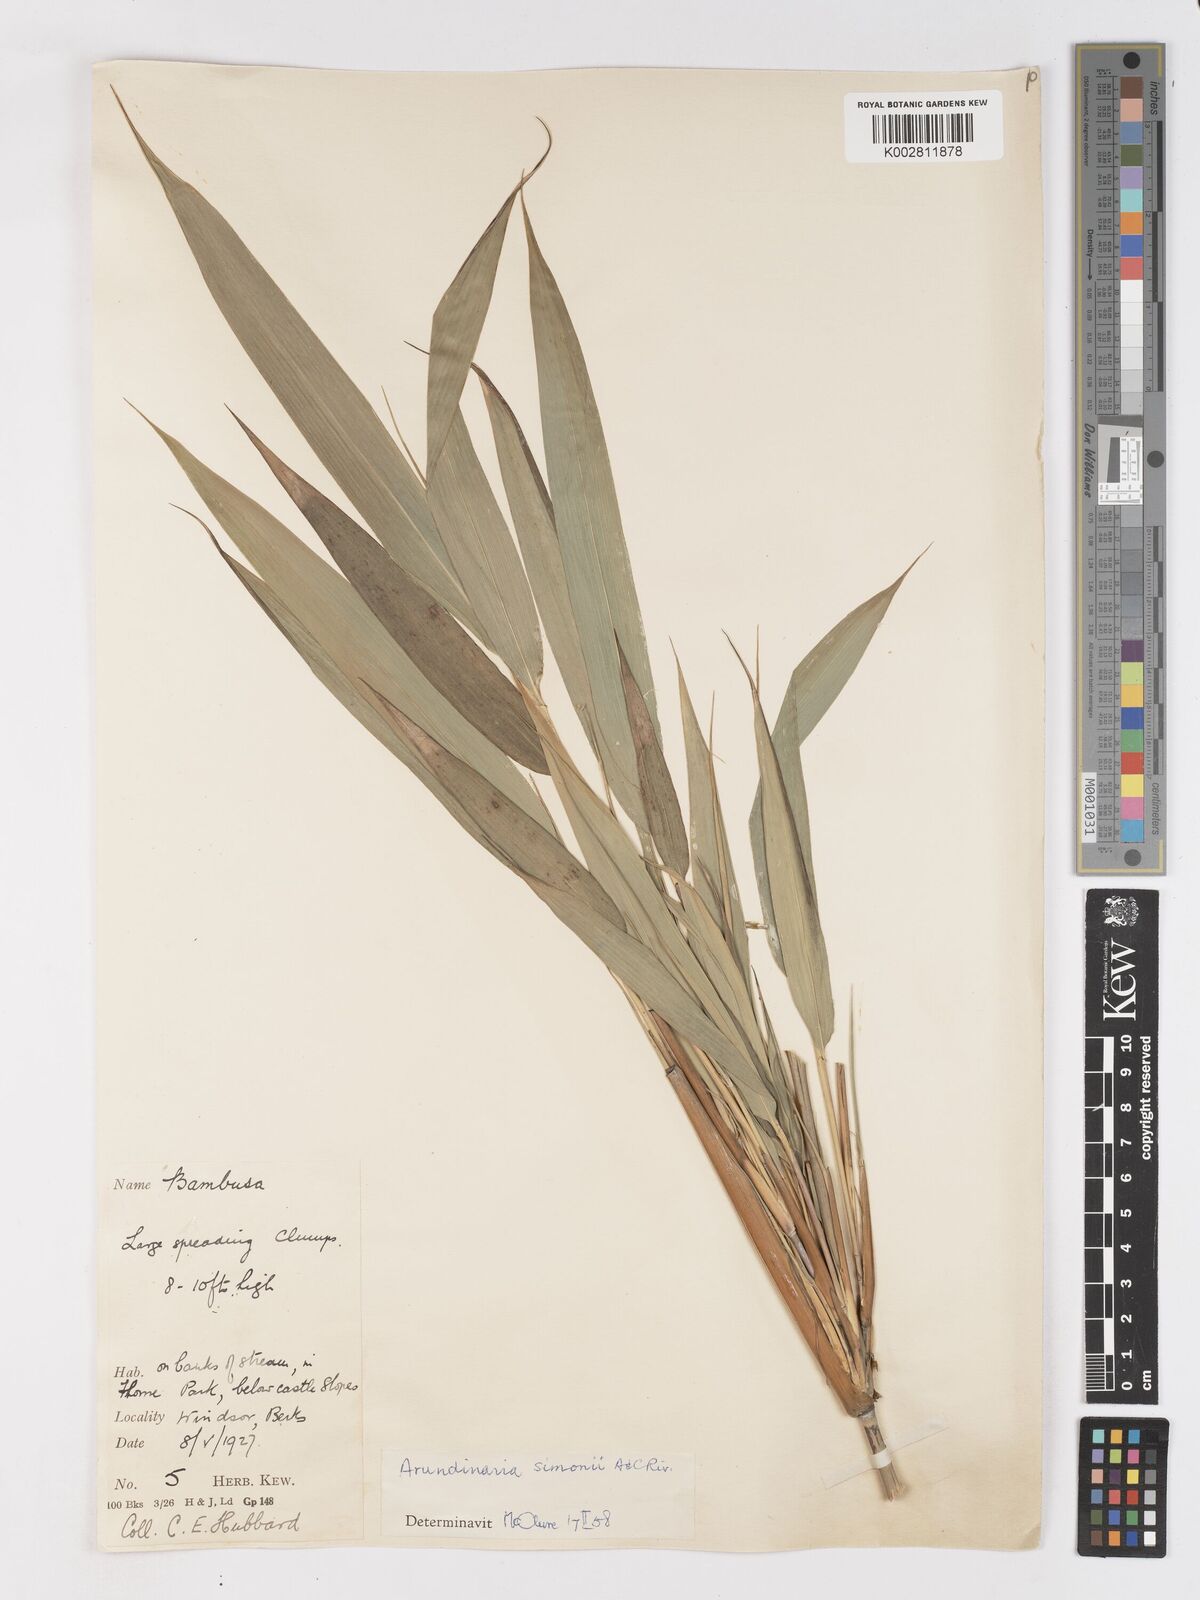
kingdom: Plantae
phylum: Tracheophyta
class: Liliopsida
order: Poales
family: Poaceae
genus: Pleioblastus
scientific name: Pleioblastus simonii
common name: Simon bamboo
